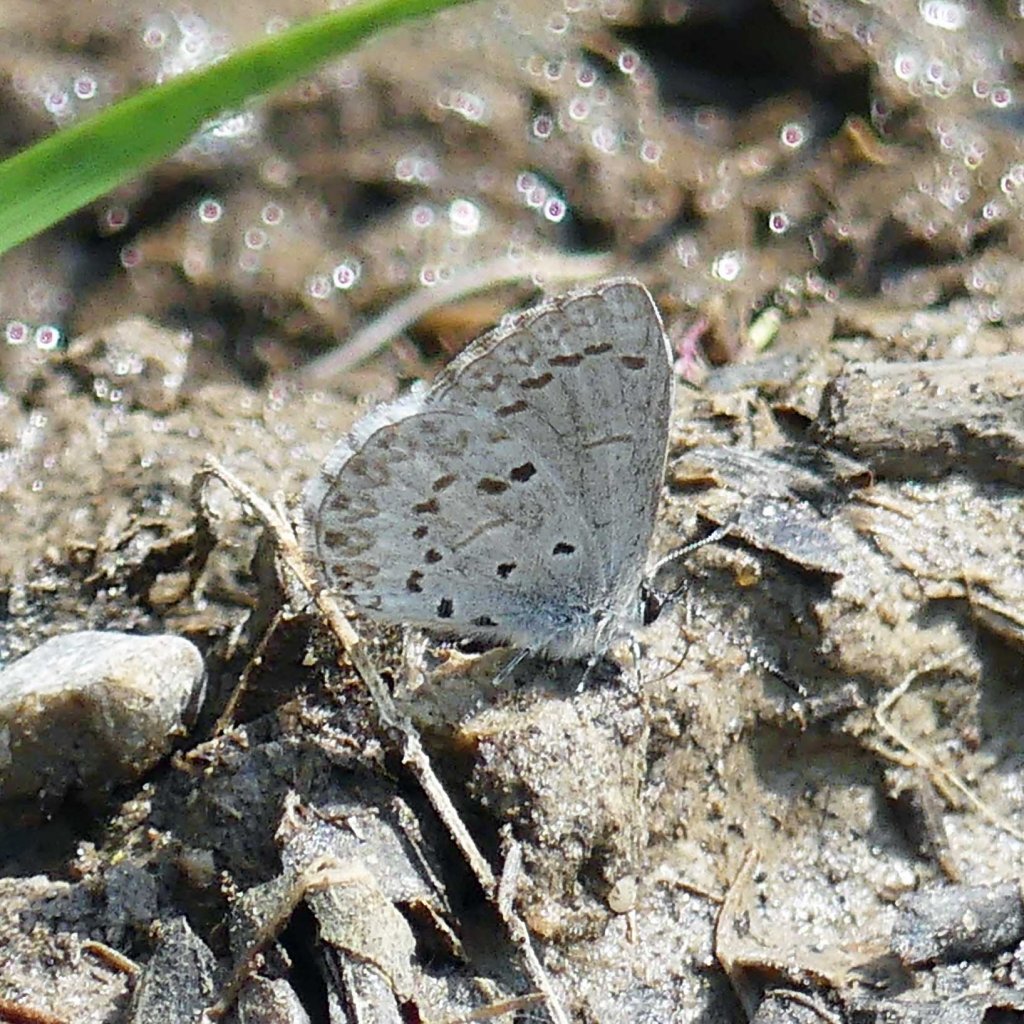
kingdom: Animalia
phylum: Arthropoda
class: Insecta
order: Lepidoptera
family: Lycaenidae
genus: Celastrina
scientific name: Celastrina
